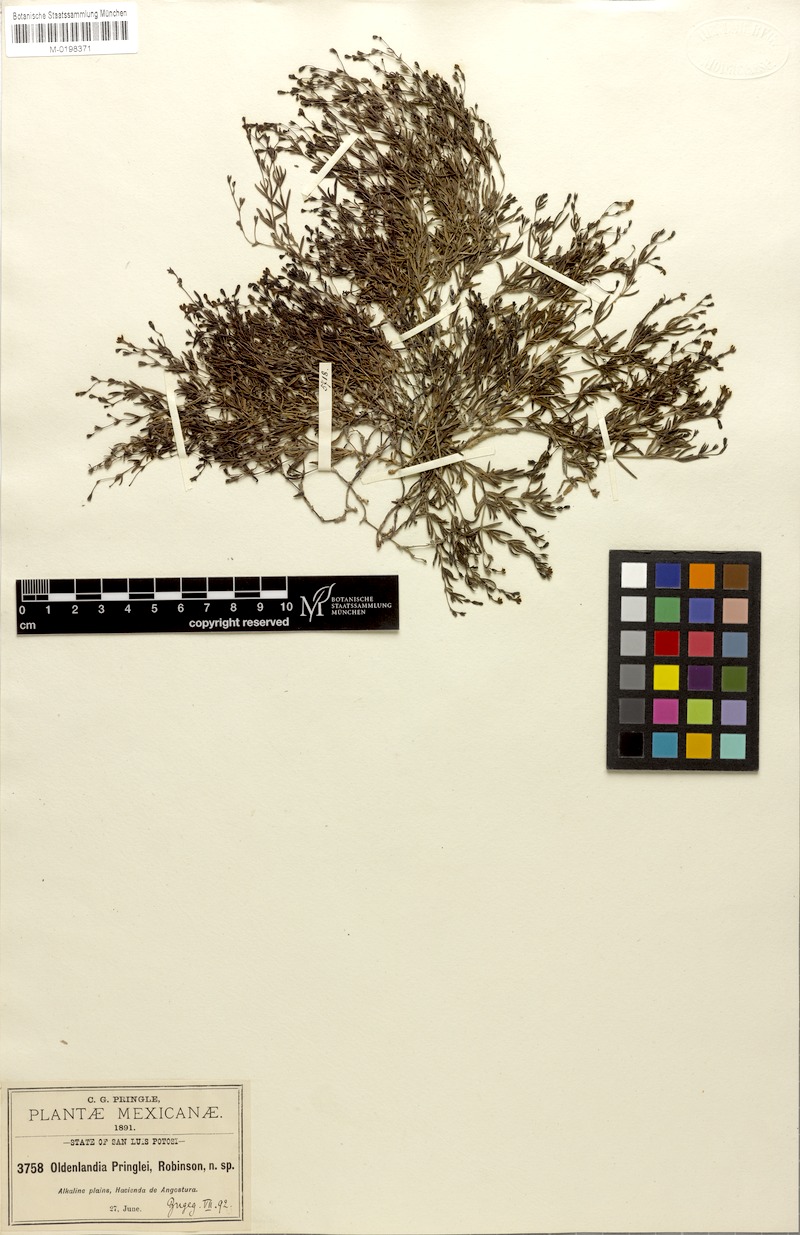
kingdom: Plantae
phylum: Tracheophyta
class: Magnoliopsida
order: Gentianales
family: Rubiaceae
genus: Oldenlandia
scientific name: Oldenlandia pringlei
